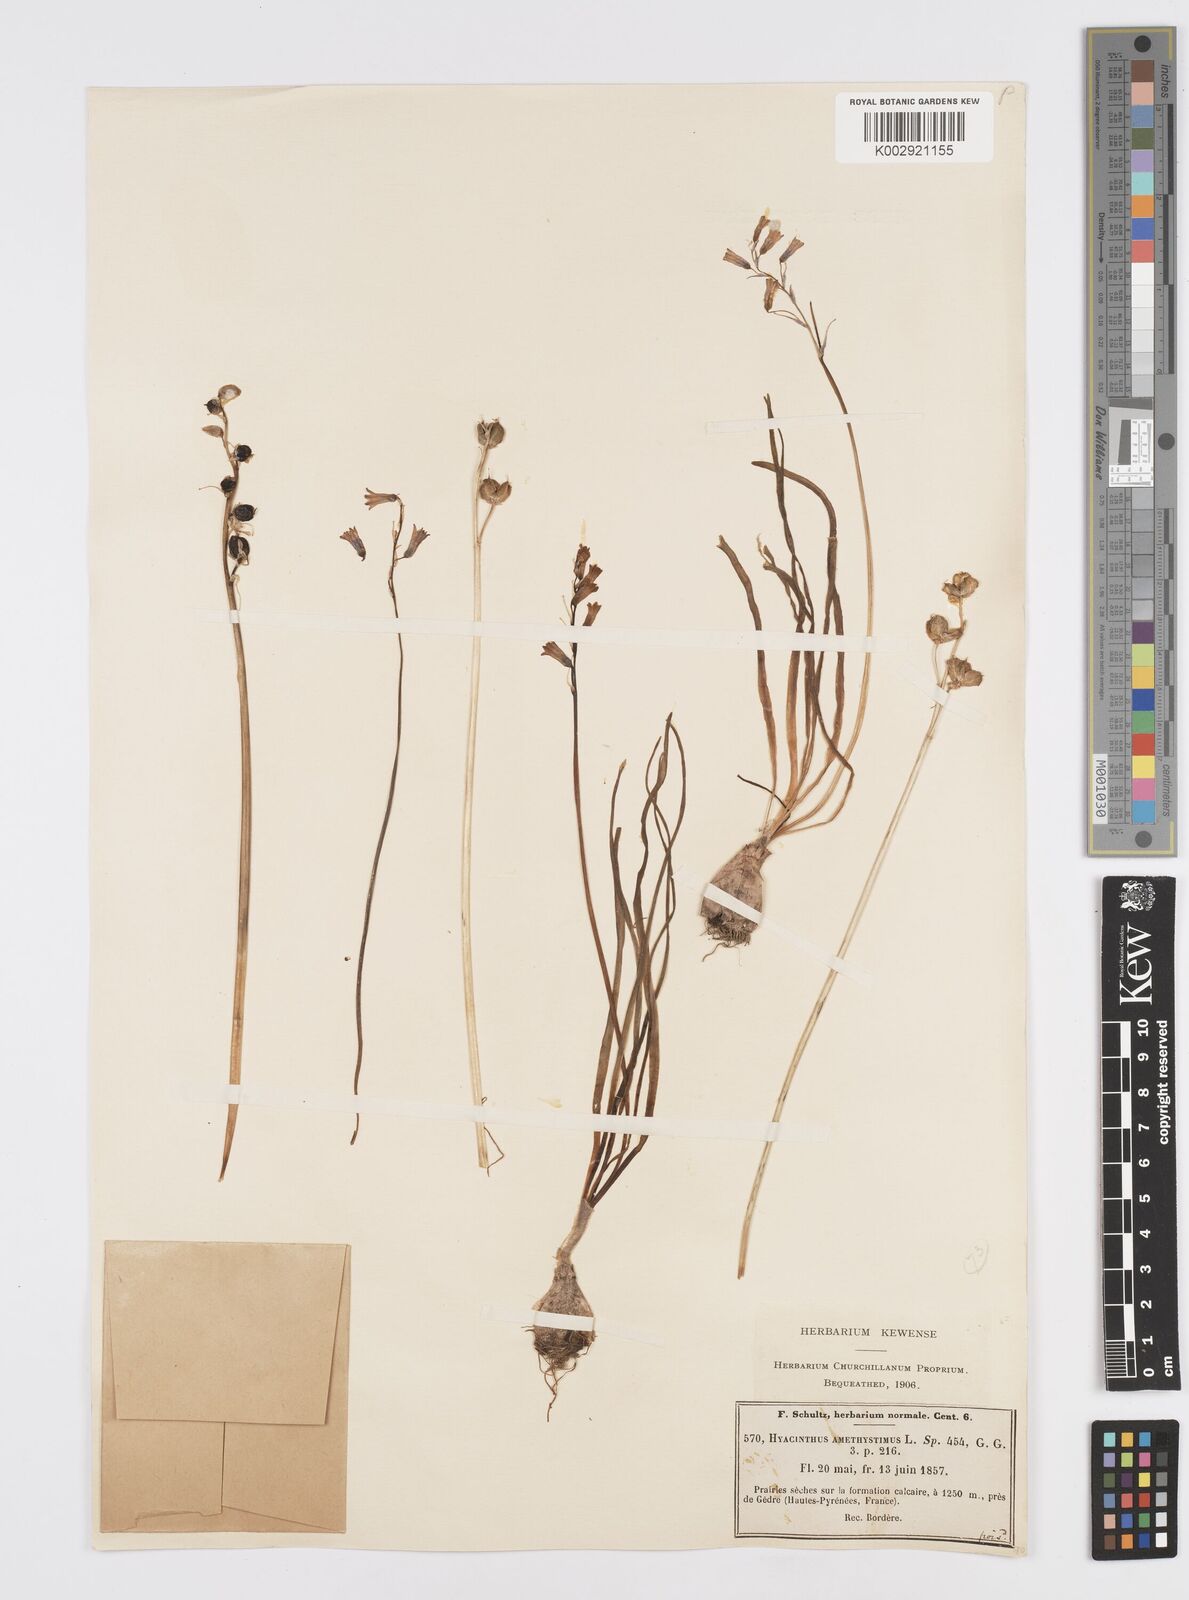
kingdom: Plantae
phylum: Tracheophyta
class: Liliopsida
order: Asparagales
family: Asparagaceae
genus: Brimeura
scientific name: Brimeura amethystina
